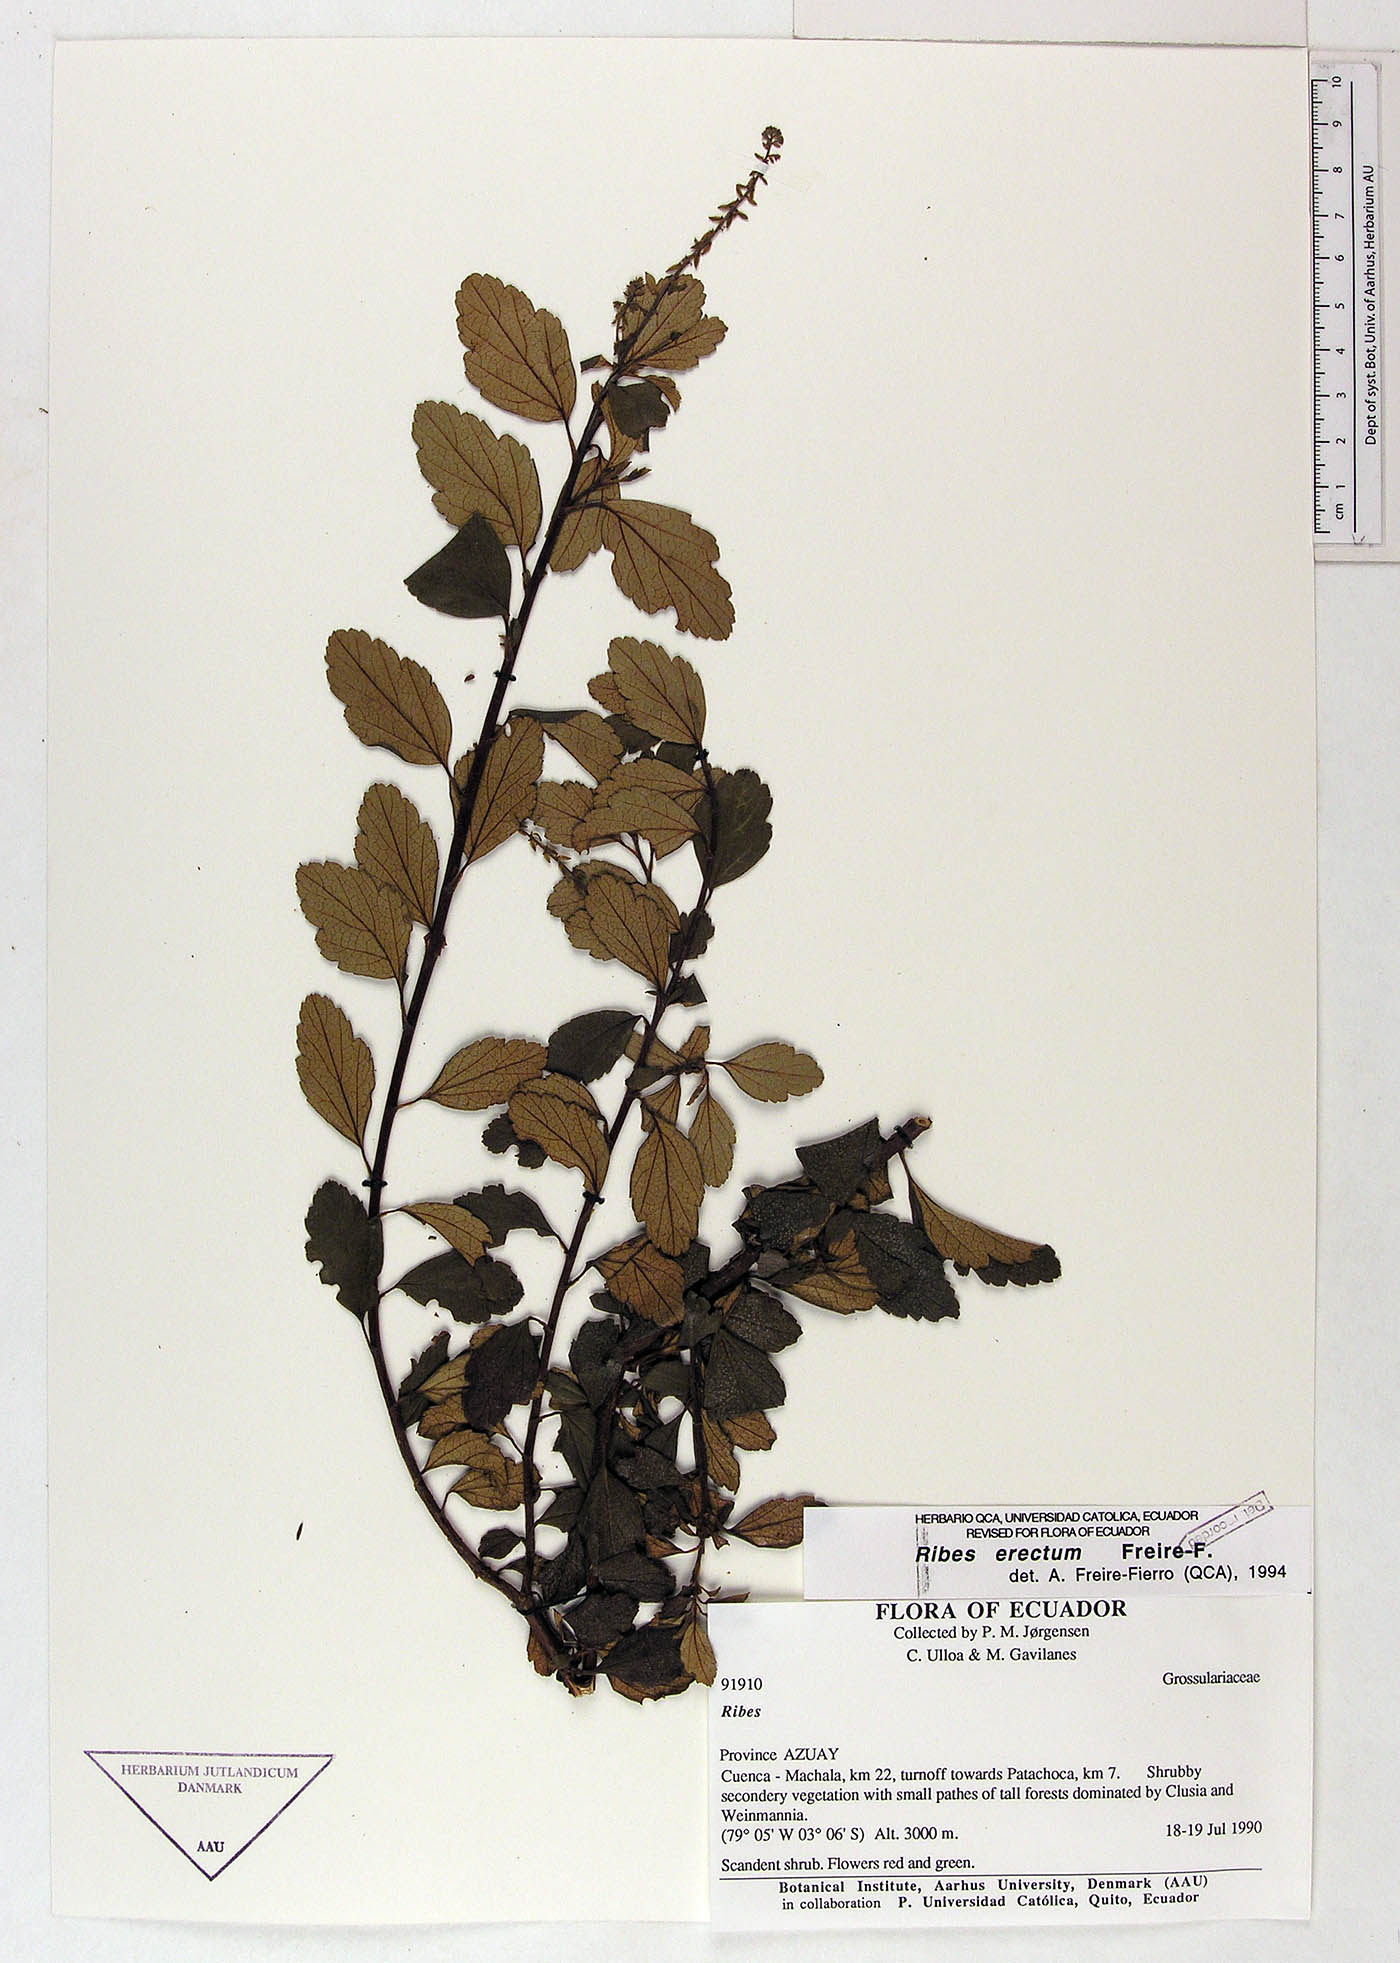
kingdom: Plantae
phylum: Tracheophyta
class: Magnoliopsida
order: Saxifragales
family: Grossulariaceae
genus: Ribes
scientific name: Ribes erectum
